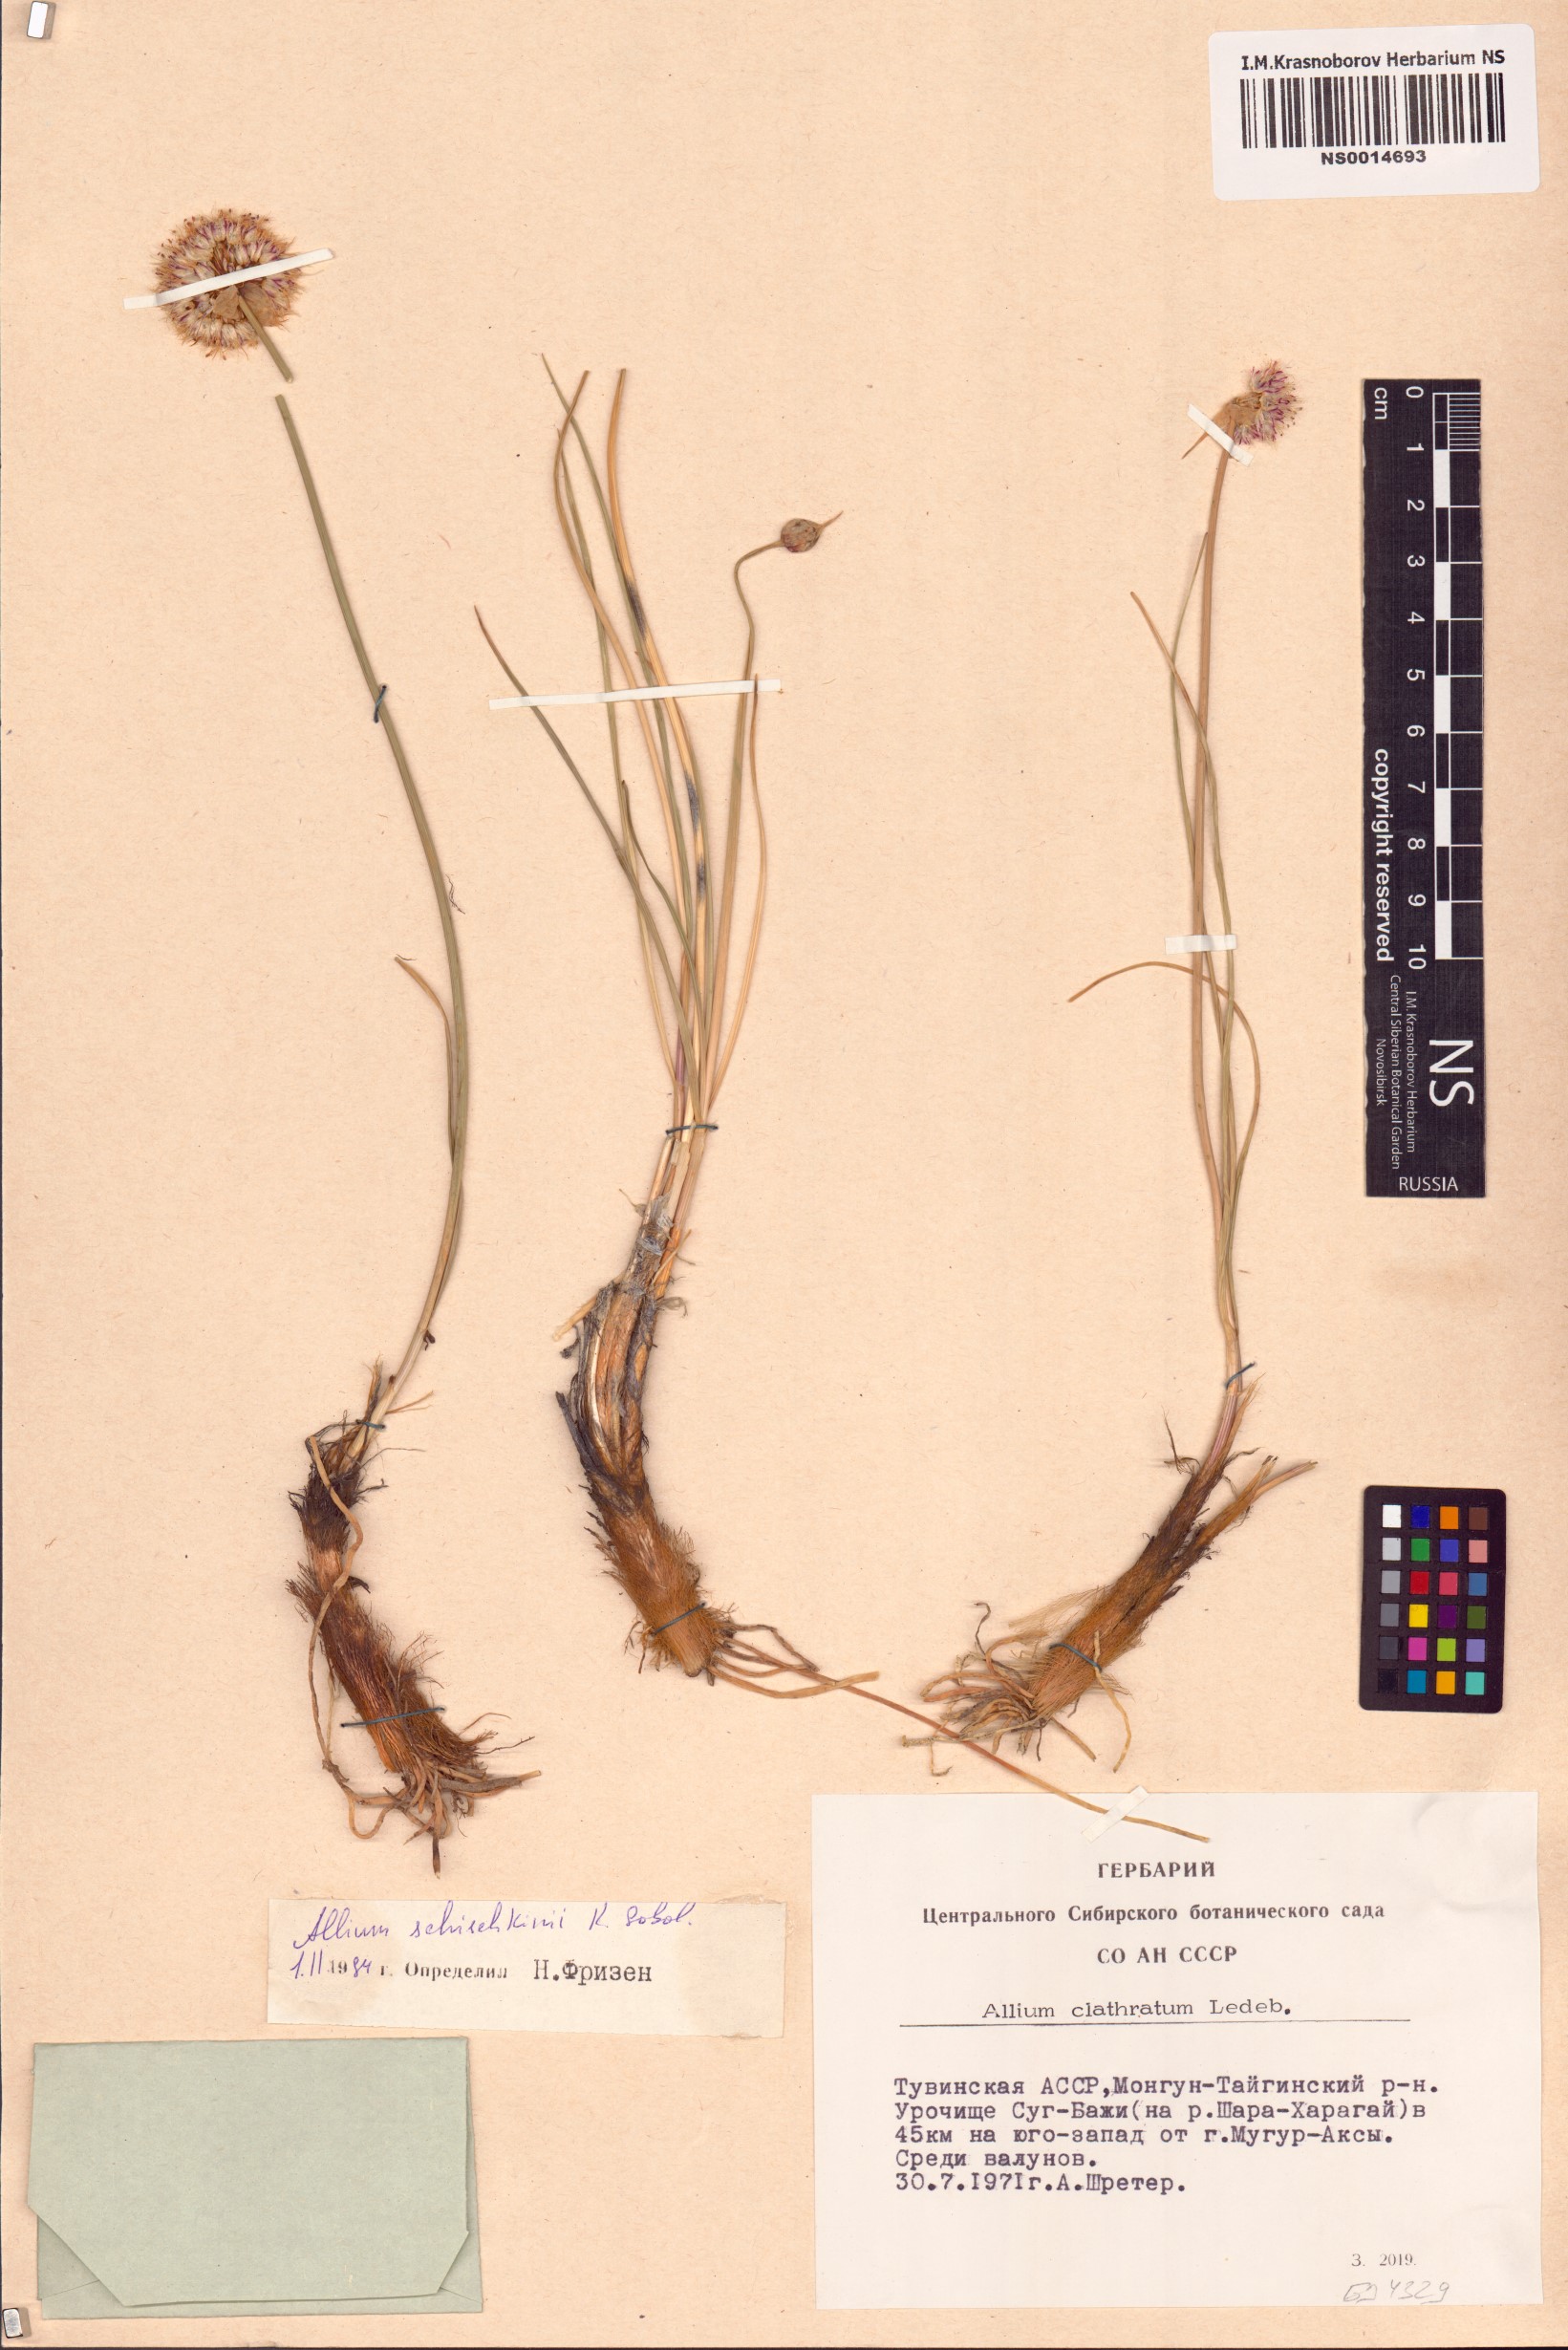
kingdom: Plantae
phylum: Tracheophyta
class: Liliopsida
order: Asparagales
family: Amaryllidaceae
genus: Allium
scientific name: Allium schischkinii
